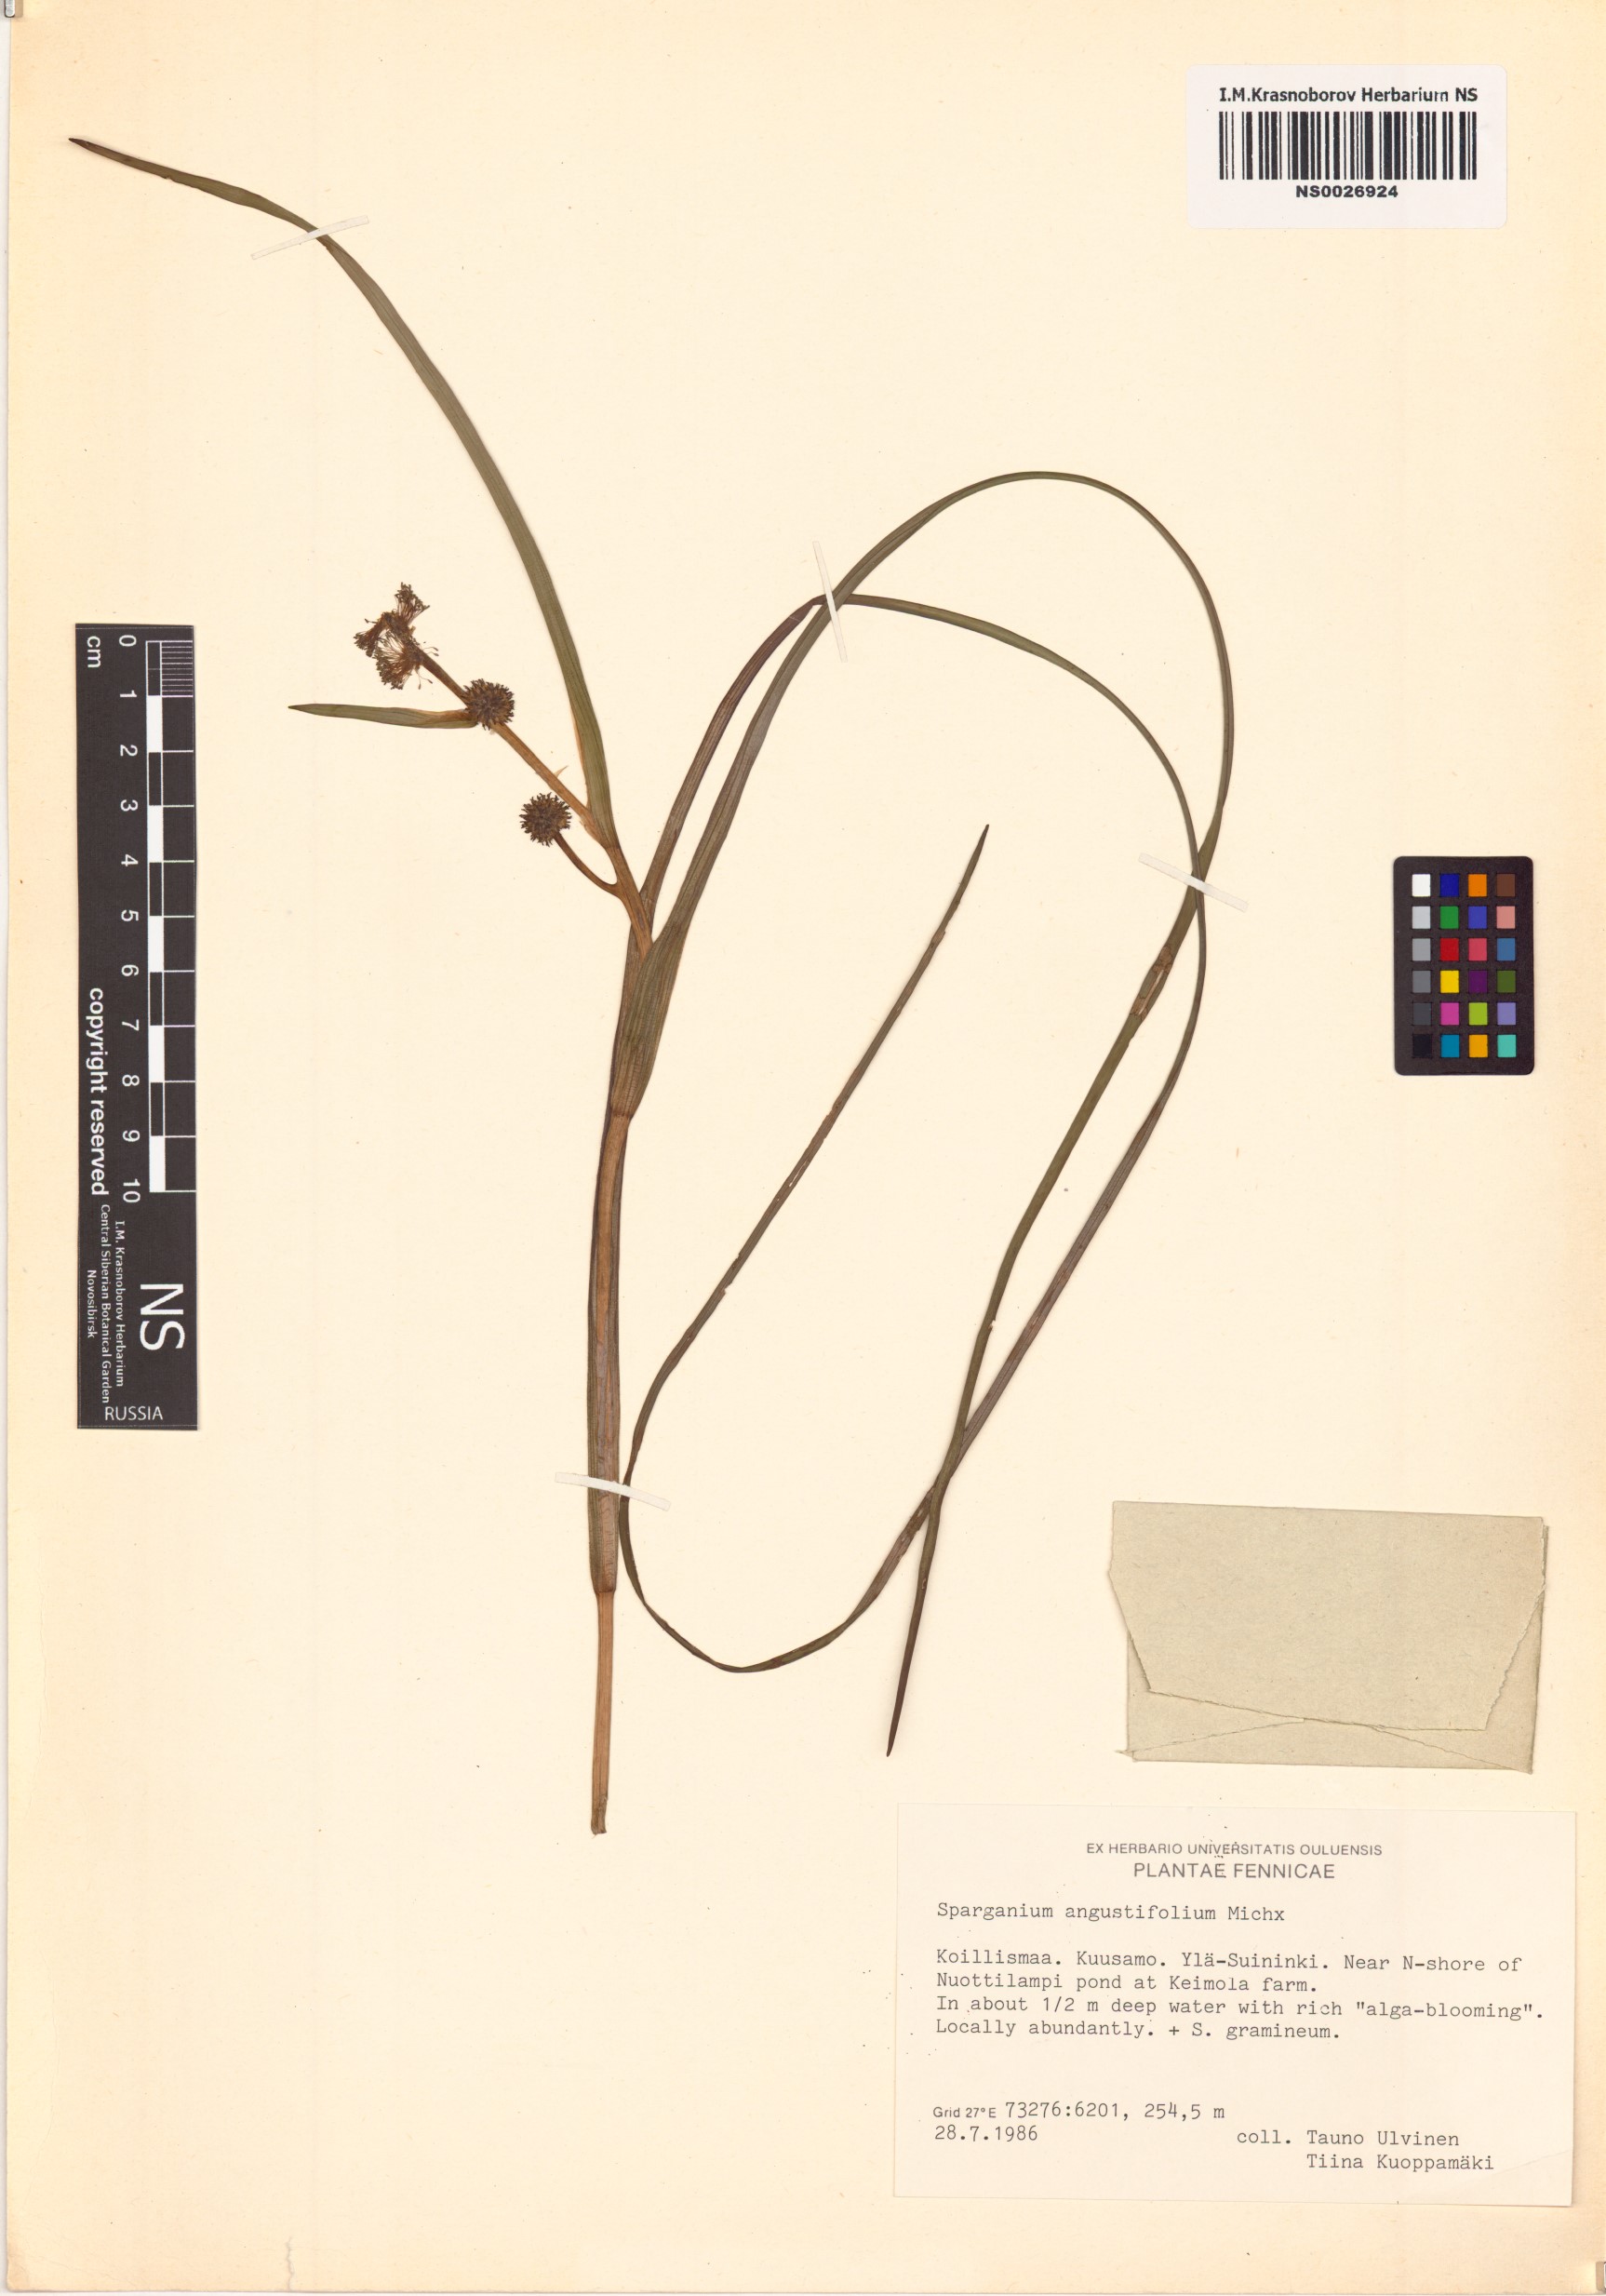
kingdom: Plantae
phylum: Tracheophyta
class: Liliopsida
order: Poales
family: Typhaceae
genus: Sparganium
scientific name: Sparganium angustifolium
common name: Floating bur-reed
